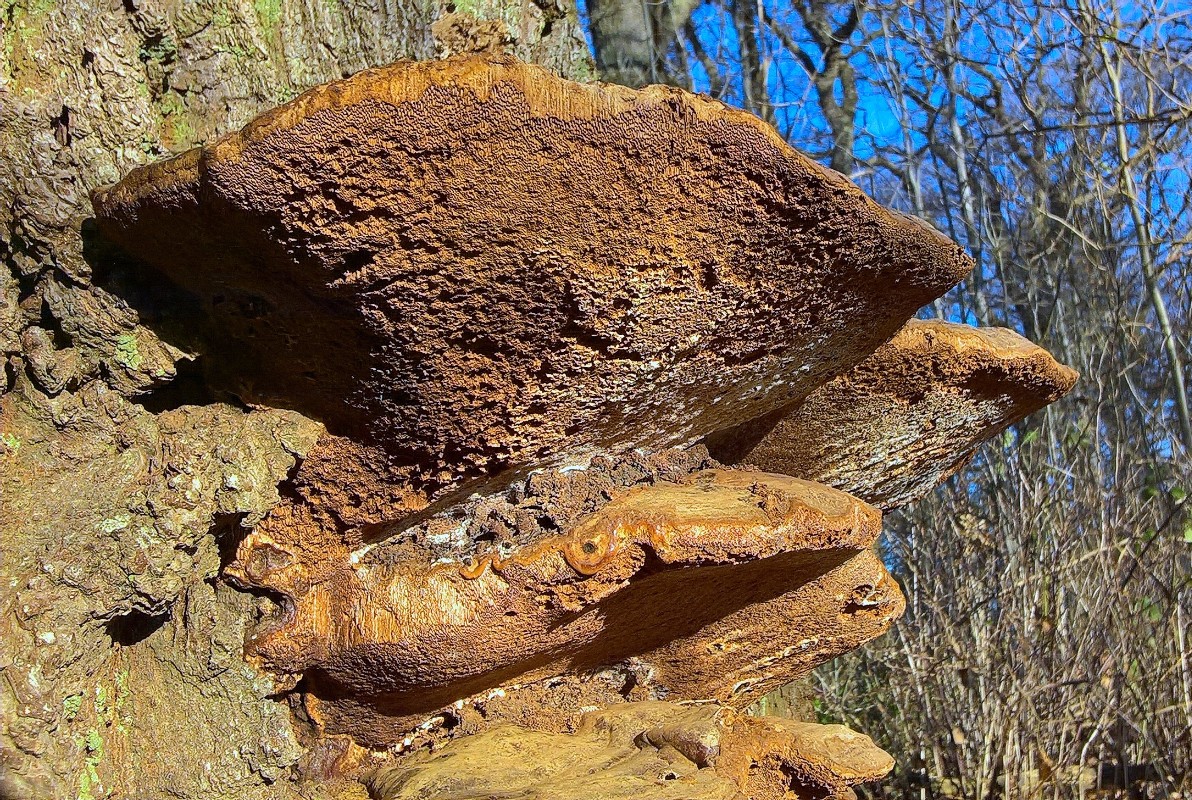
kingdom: Fungi
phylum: Basidiomycota
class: Agaricomycetes
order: Polyporales
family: Polyporaceae
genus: Ganoderma
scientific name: Ganoderma resinaceum
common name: gyldenbrun lakporesvamp
